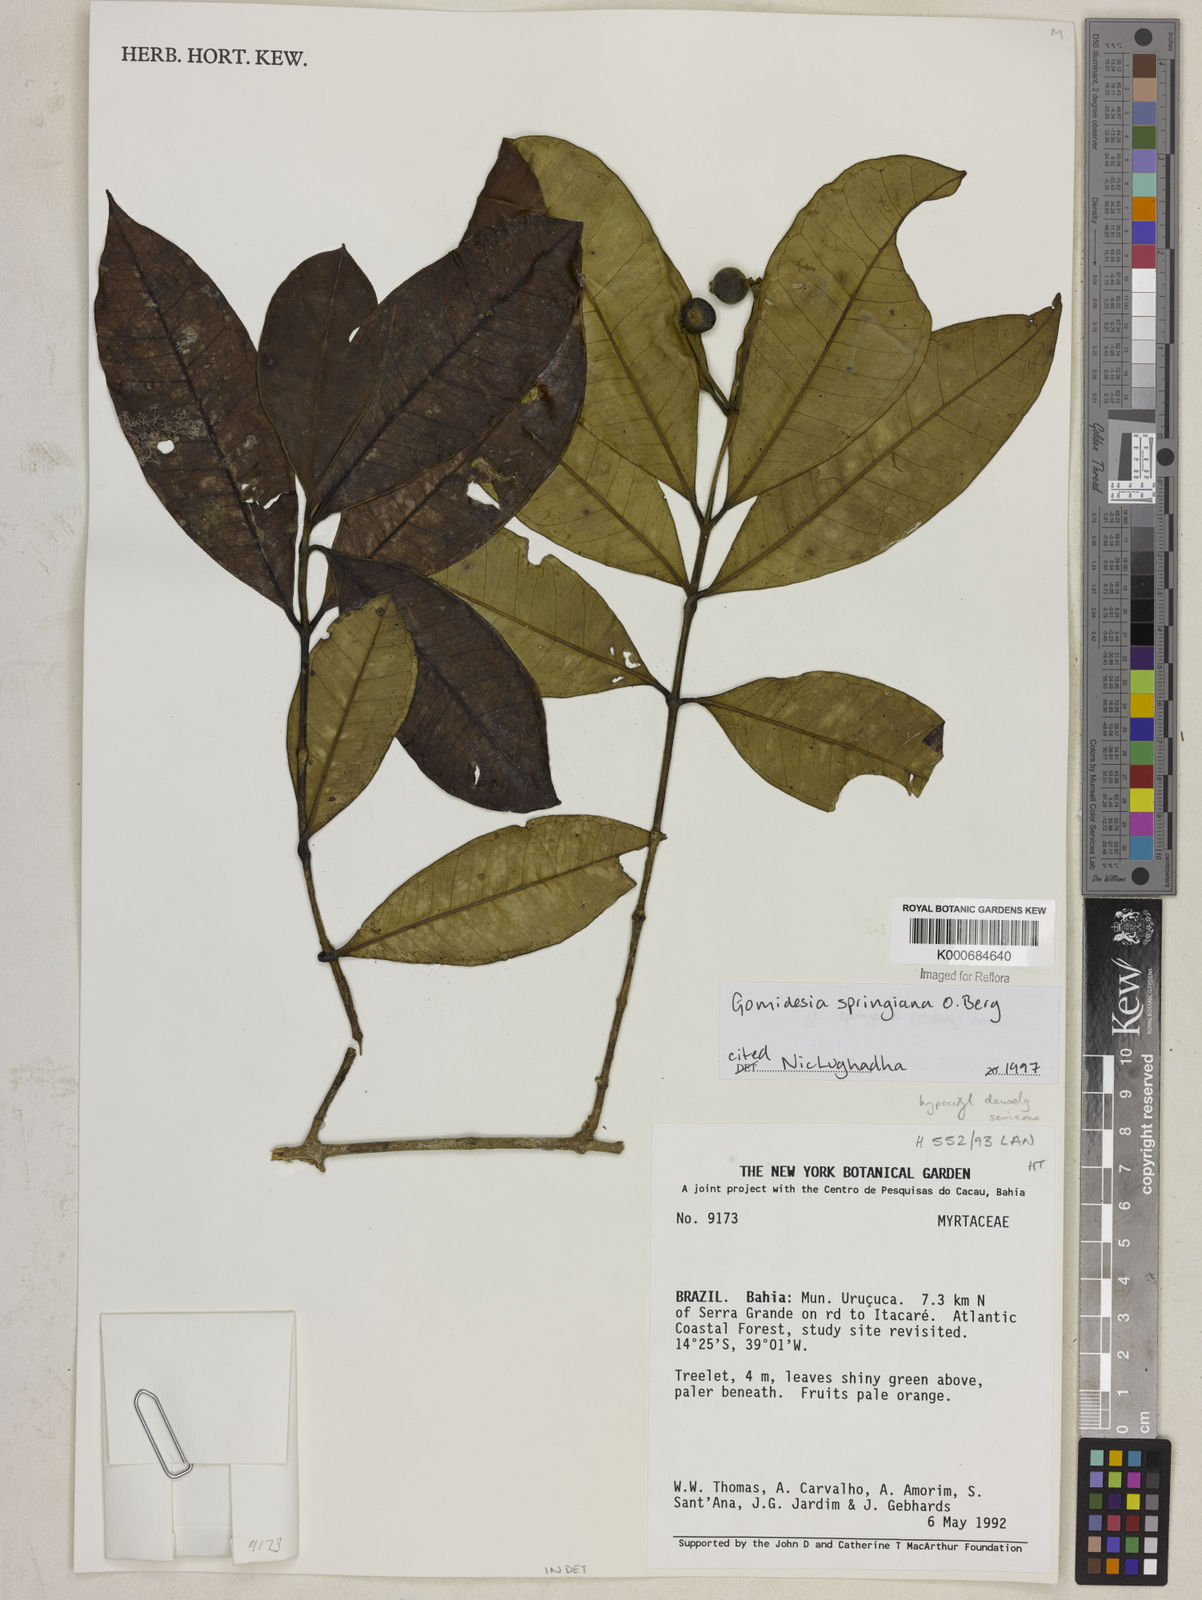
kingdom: Plantae
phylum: Tracheophyta
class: Magnoliopsida
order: Myrtales
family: Myrtaceae
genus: Myrcia
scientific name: Myrcia springiana
